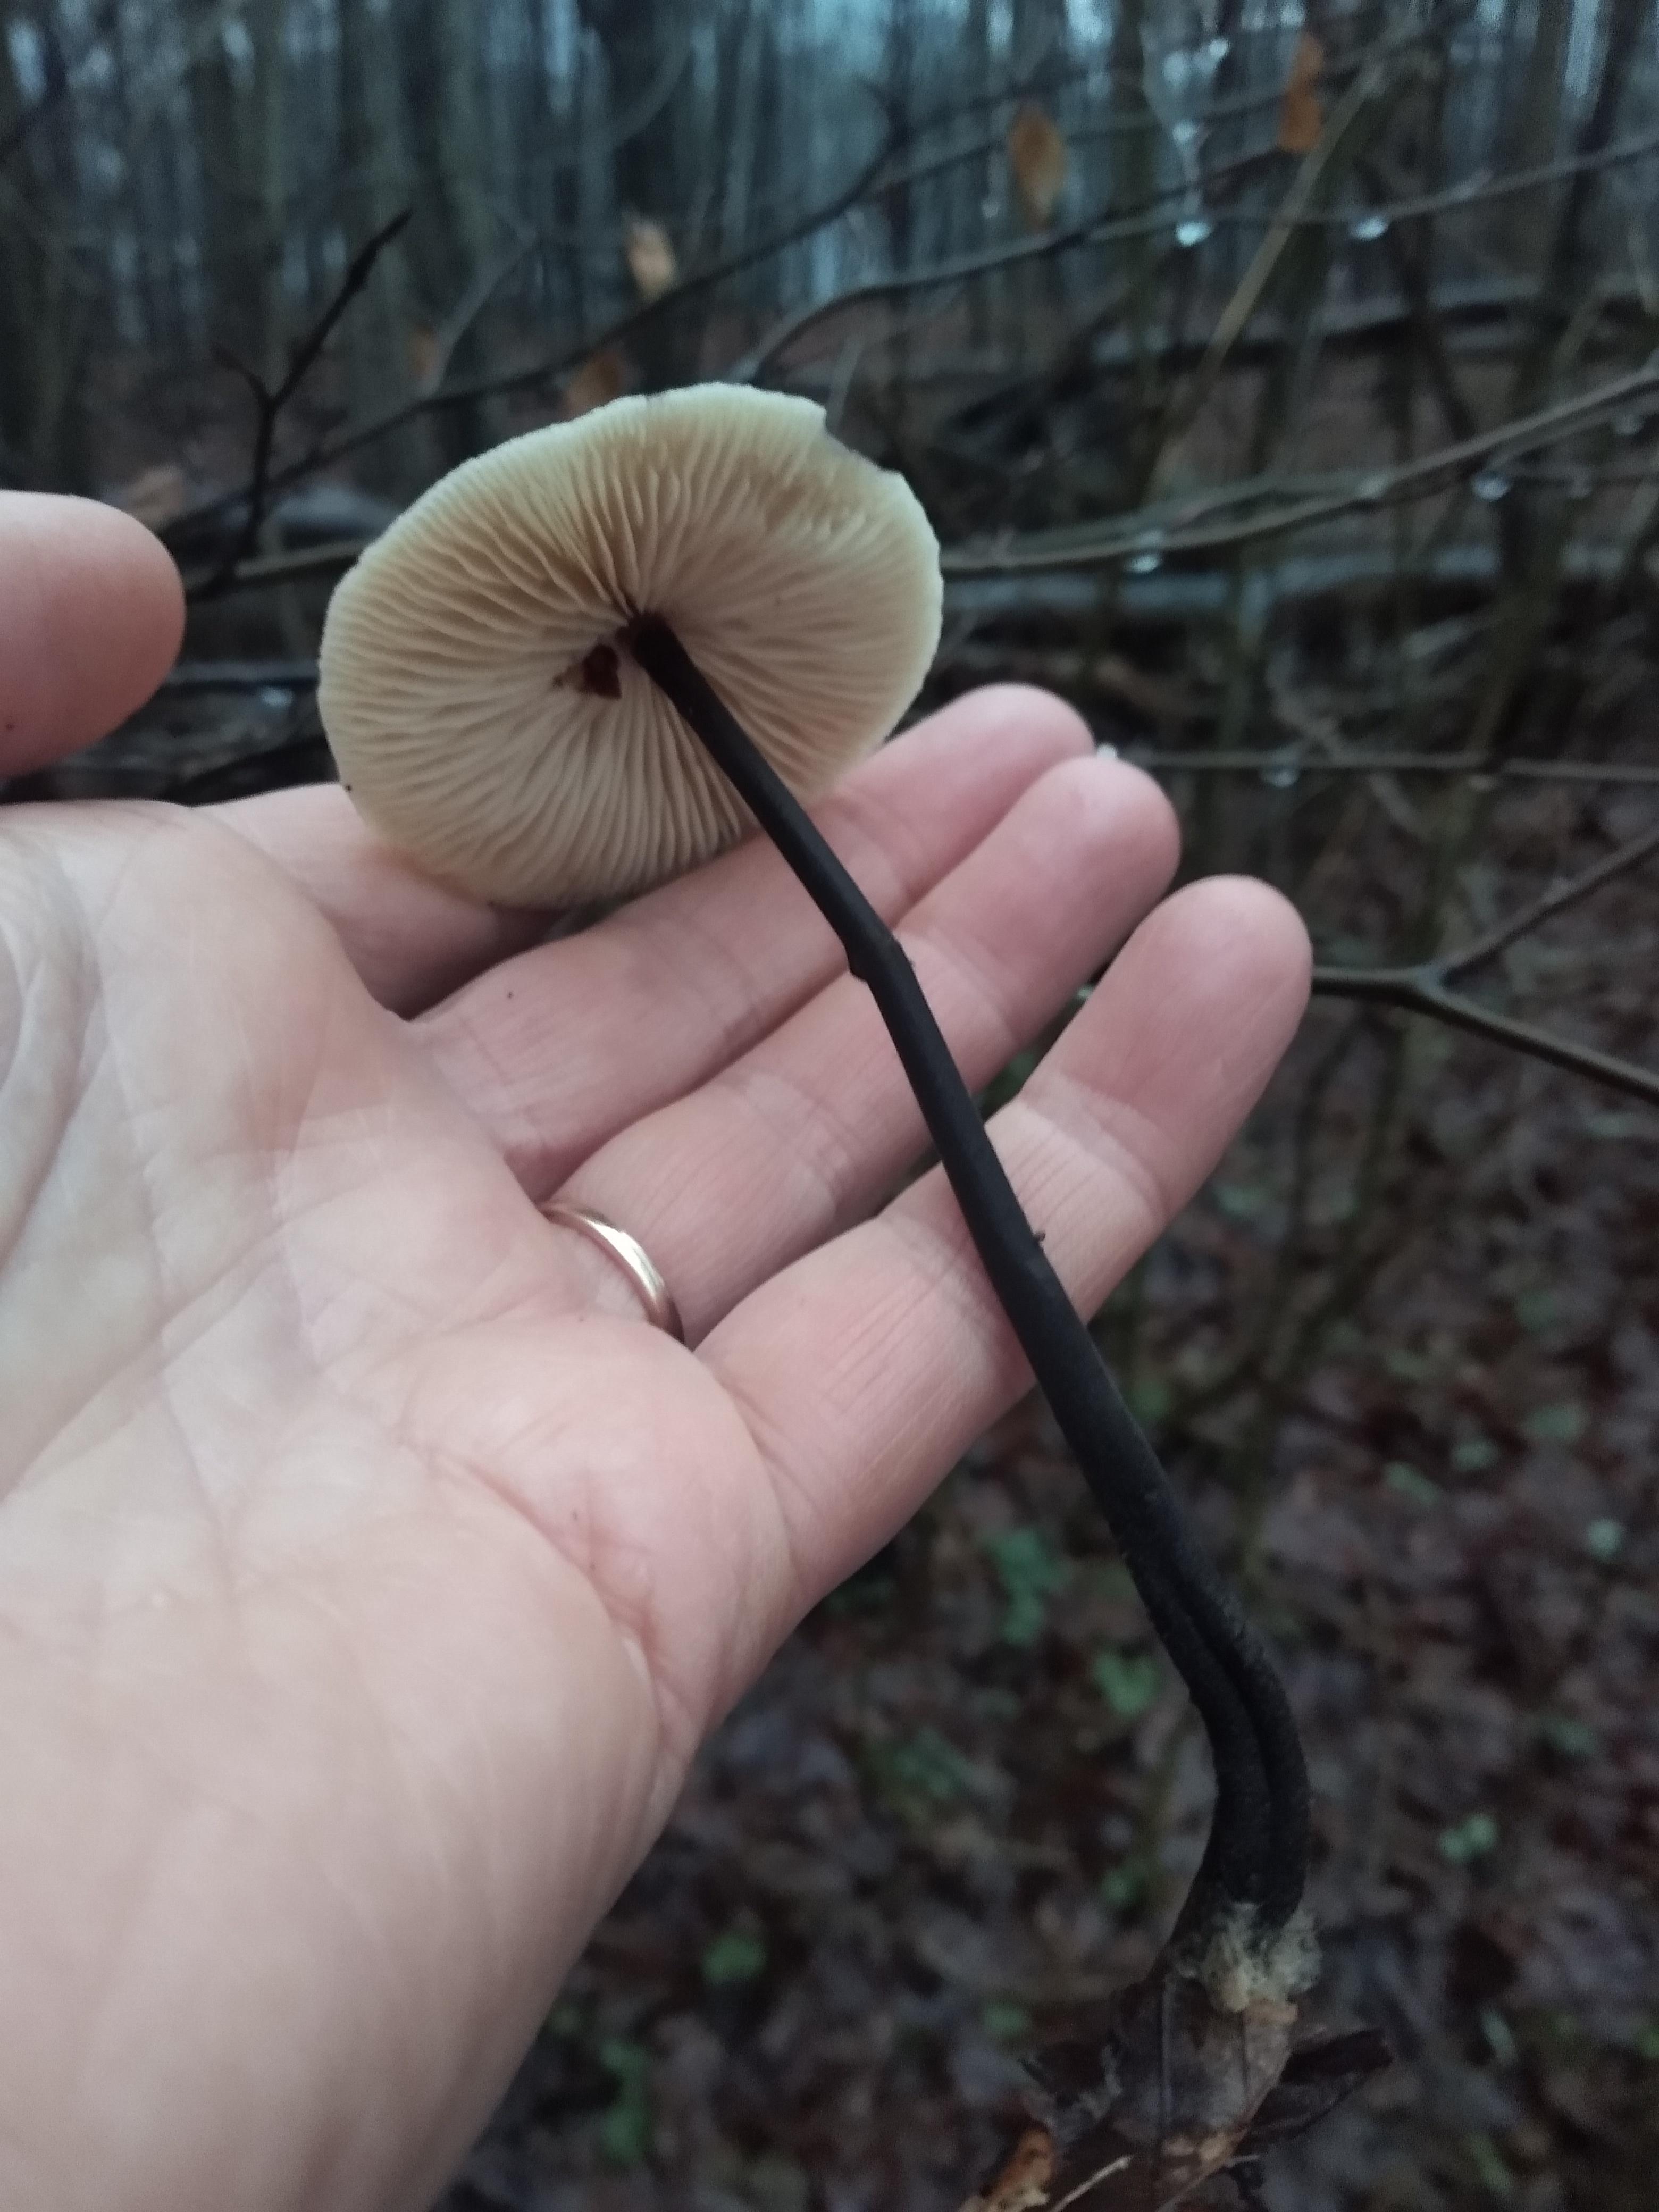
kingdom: Fungi
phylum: Basidiomycota
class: Agaricomycetes
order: Agaricales
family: Omphalotaceae
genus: Mycetinis
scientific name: Mycetinis alliaceus
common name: stor løghat
